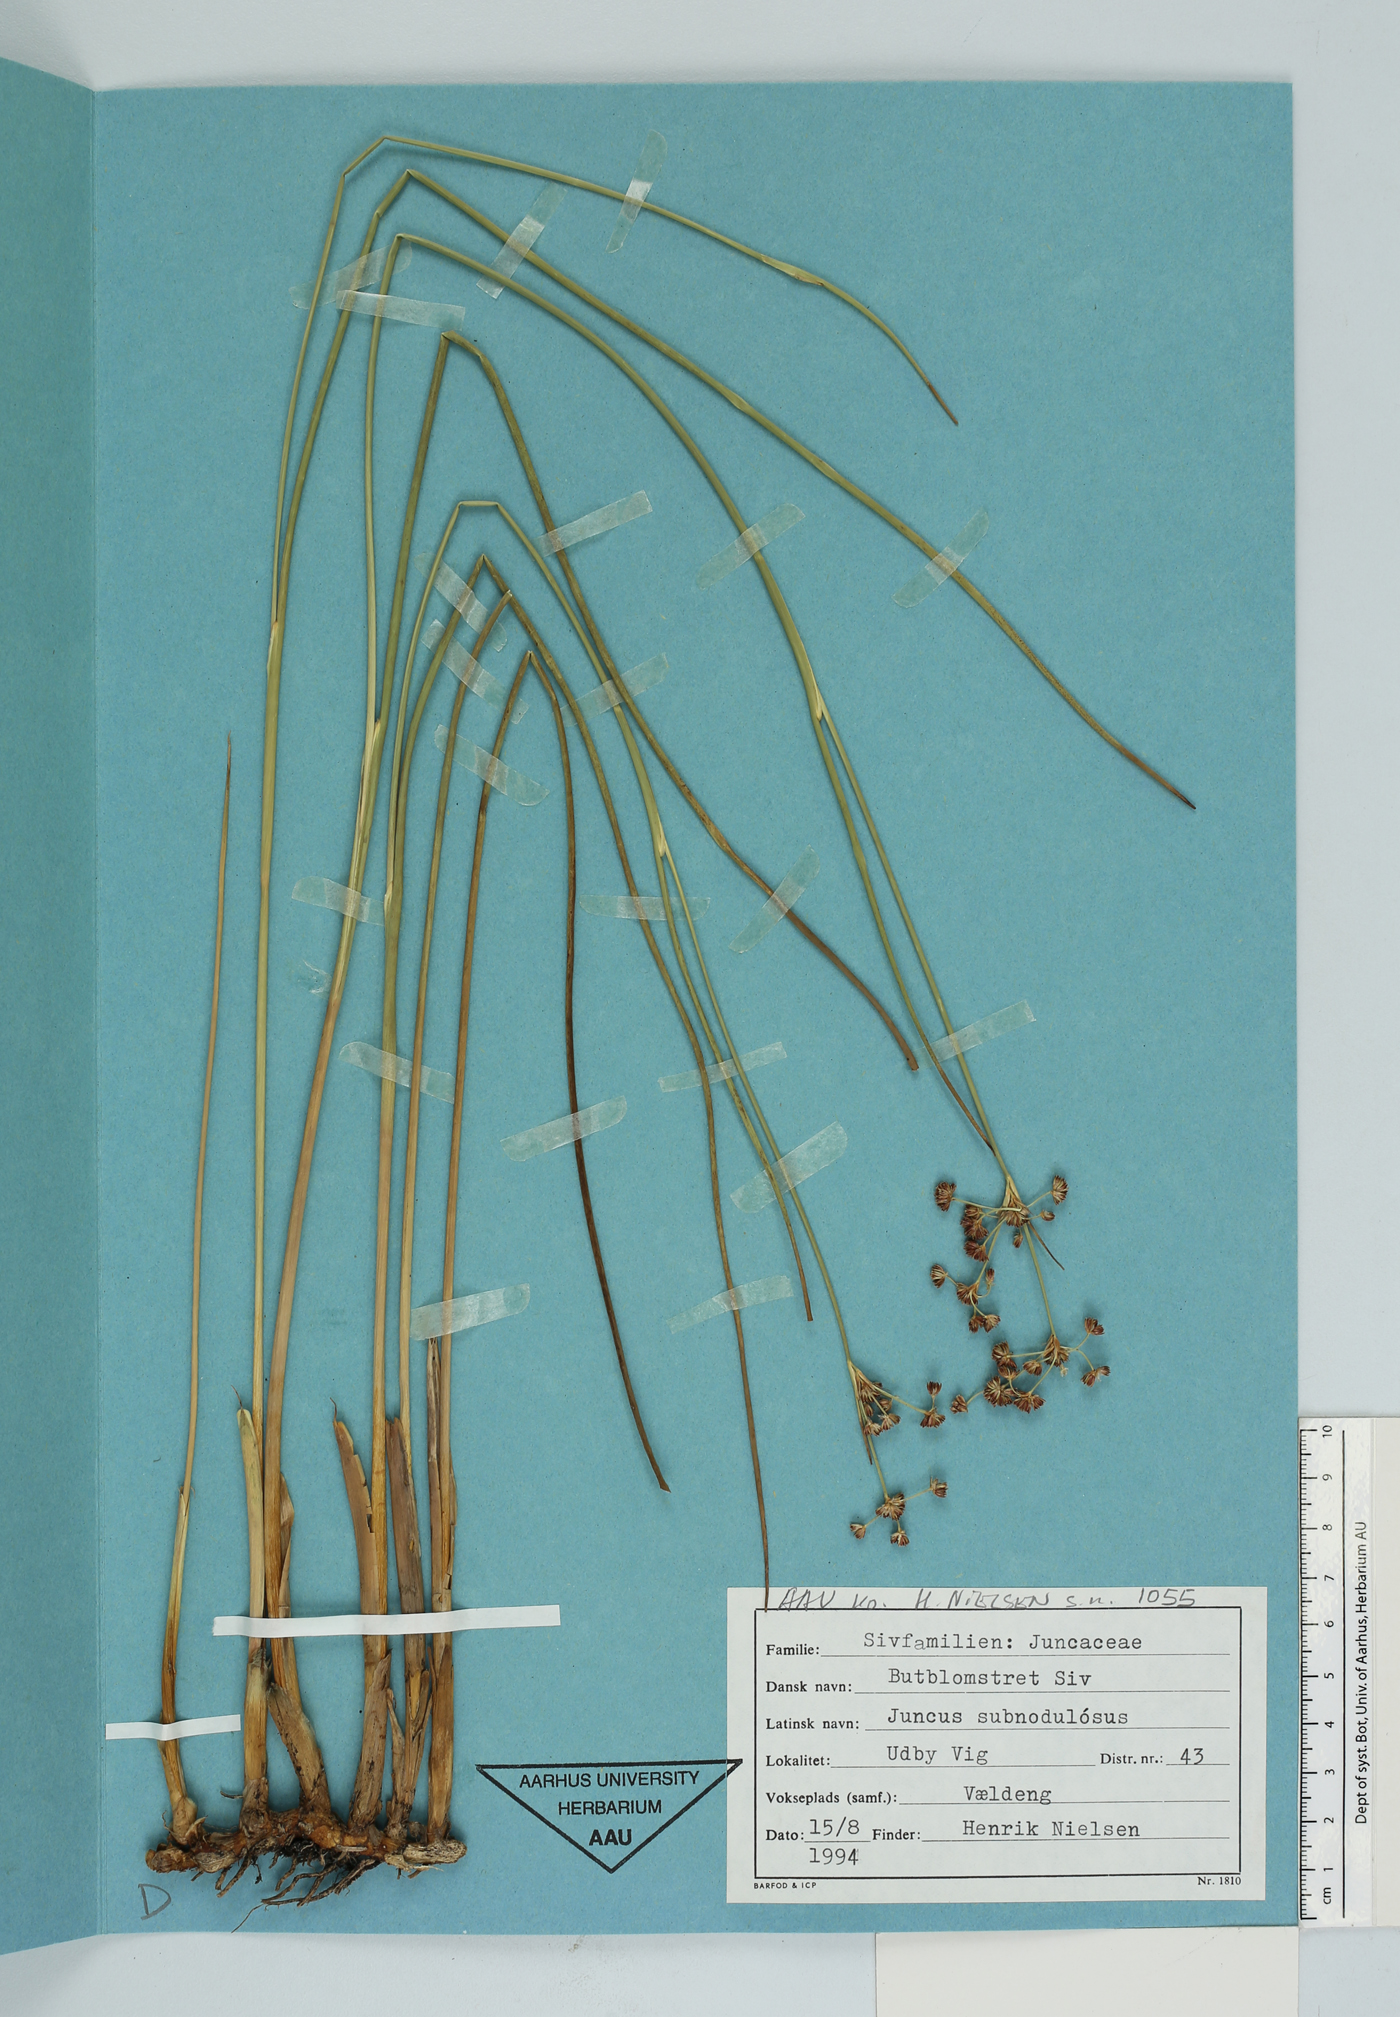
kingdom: Plantae
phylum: Tracheophyta
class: Liliopsida
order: Poales
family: Juncaceae
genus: Juncus
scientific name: Juncus subnodulosus
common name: Blunt-flowered rush
